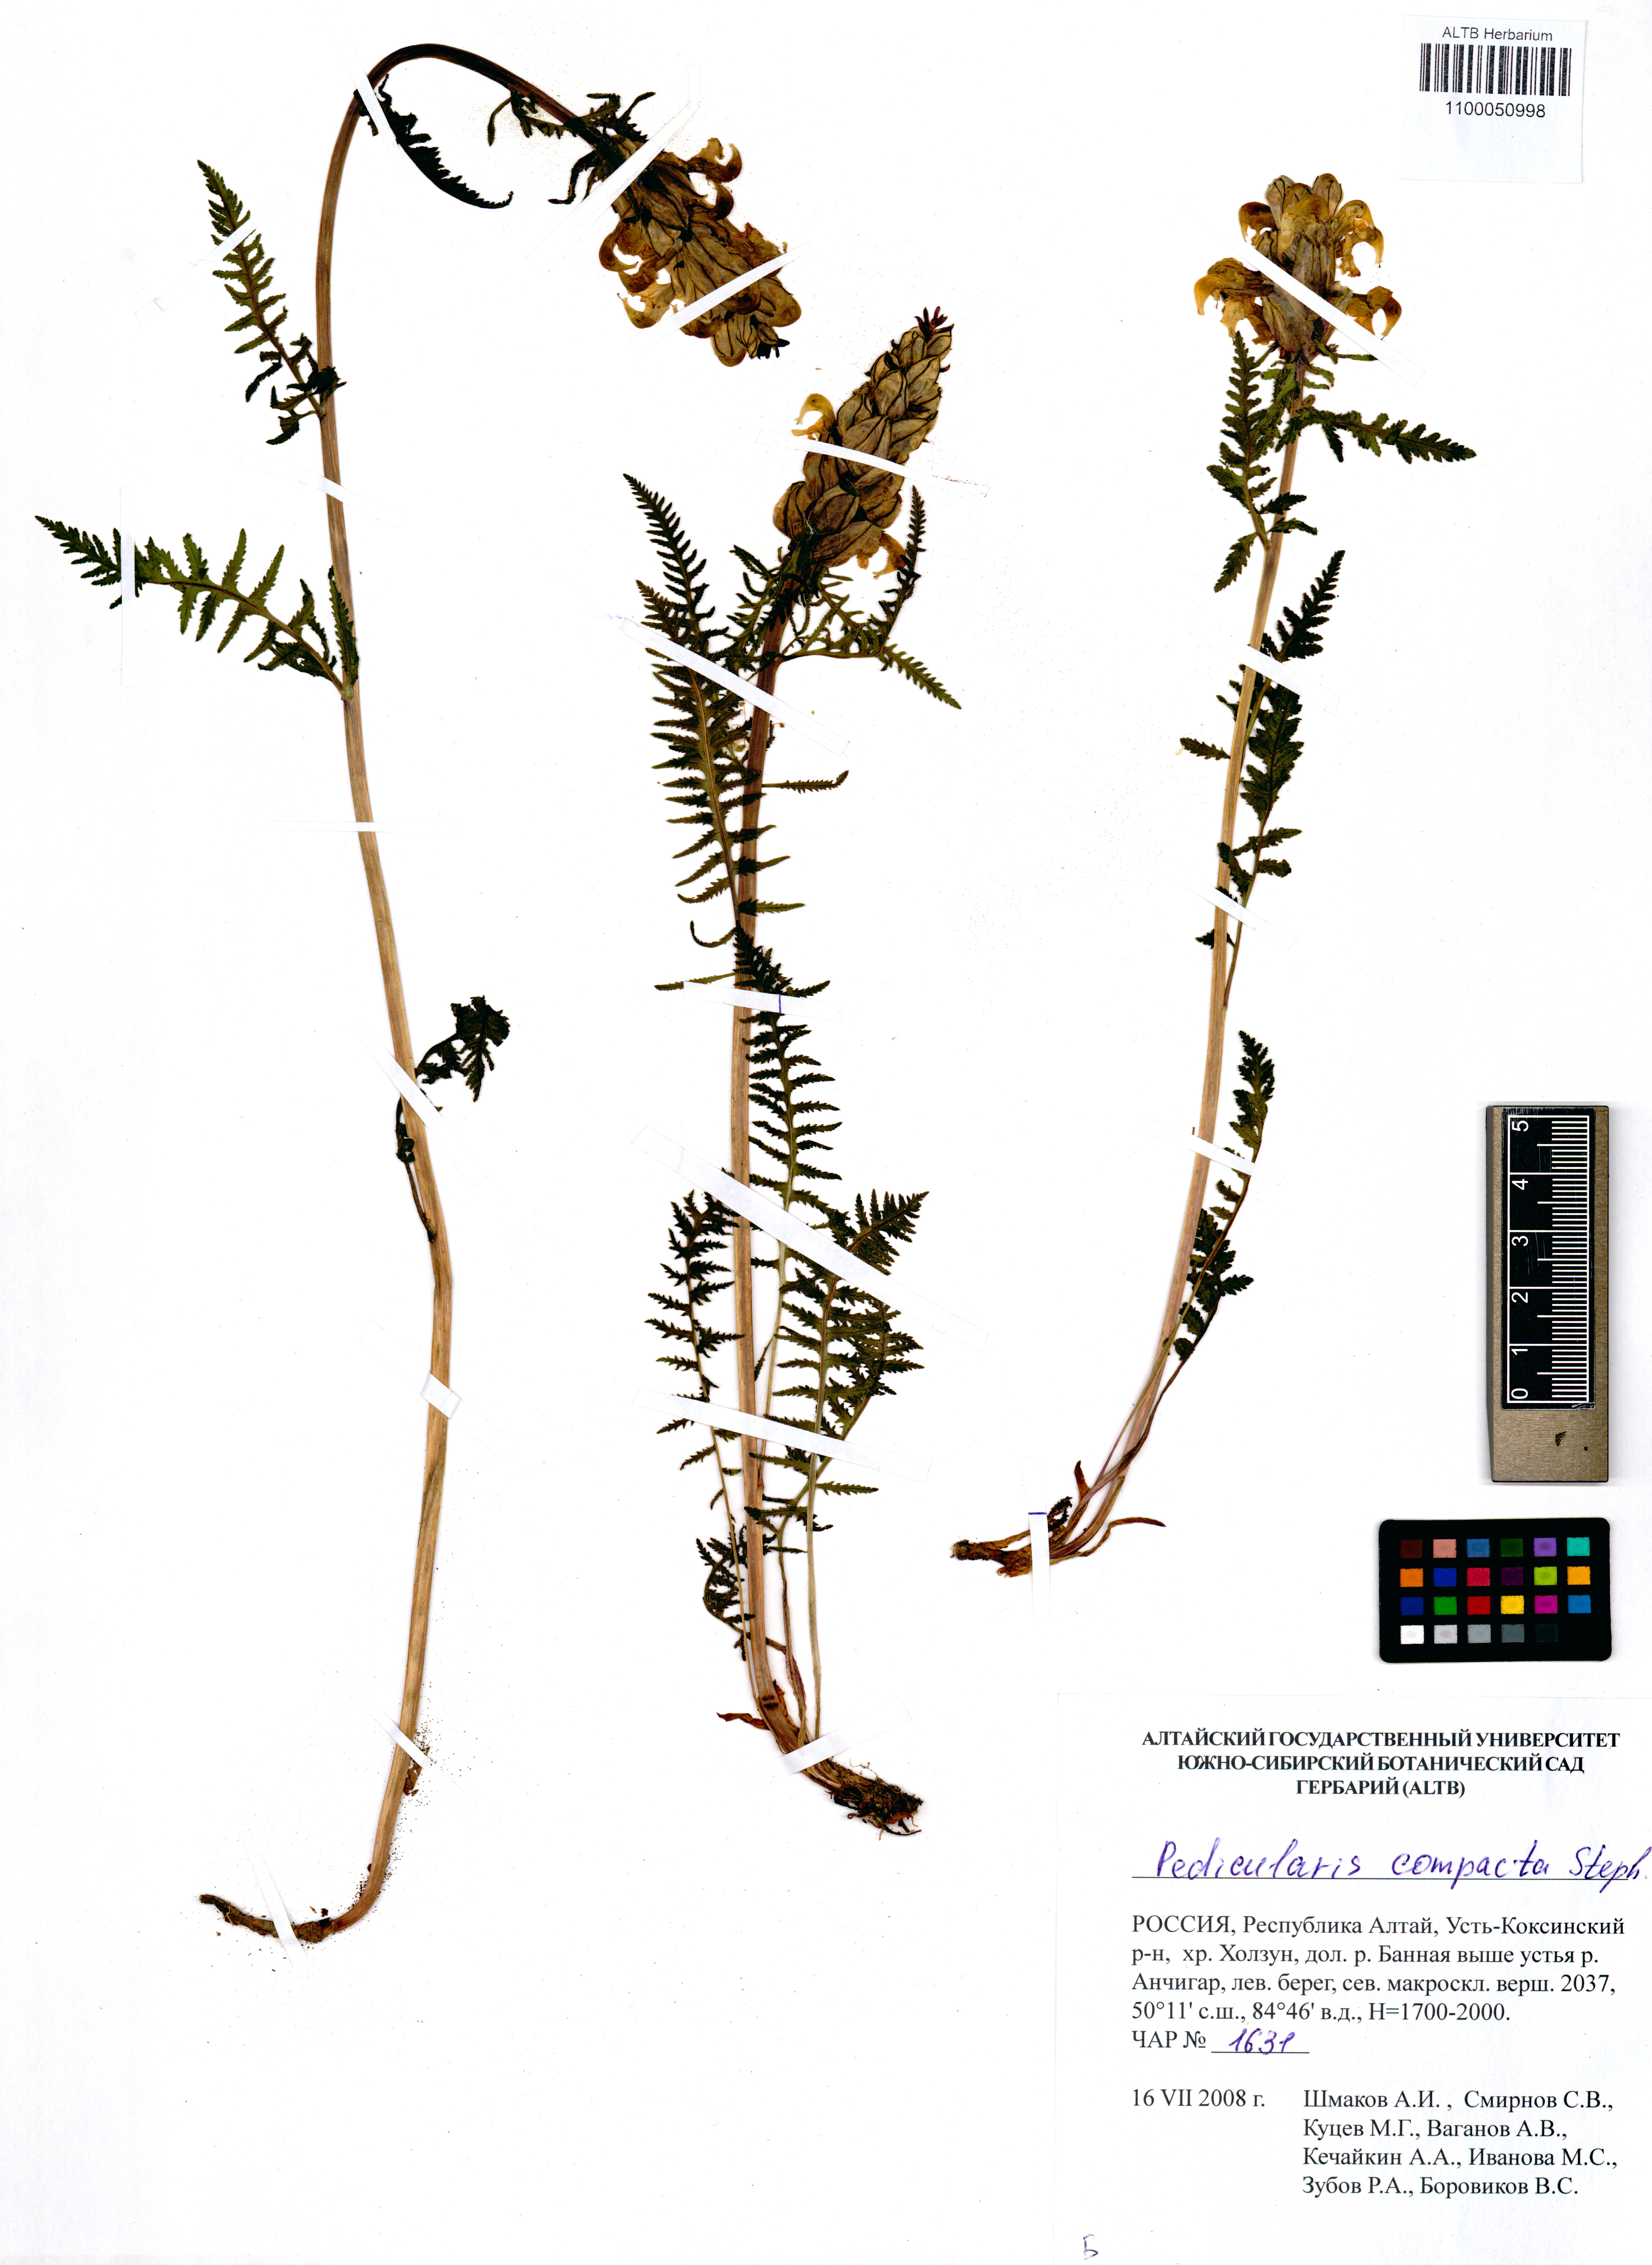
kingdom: Plantae
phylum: Tracheophyta
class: Magnoliopsida
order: Lamiales
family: Orobanchaceae
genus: Pedicularis
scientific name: Pedicularis compacta
